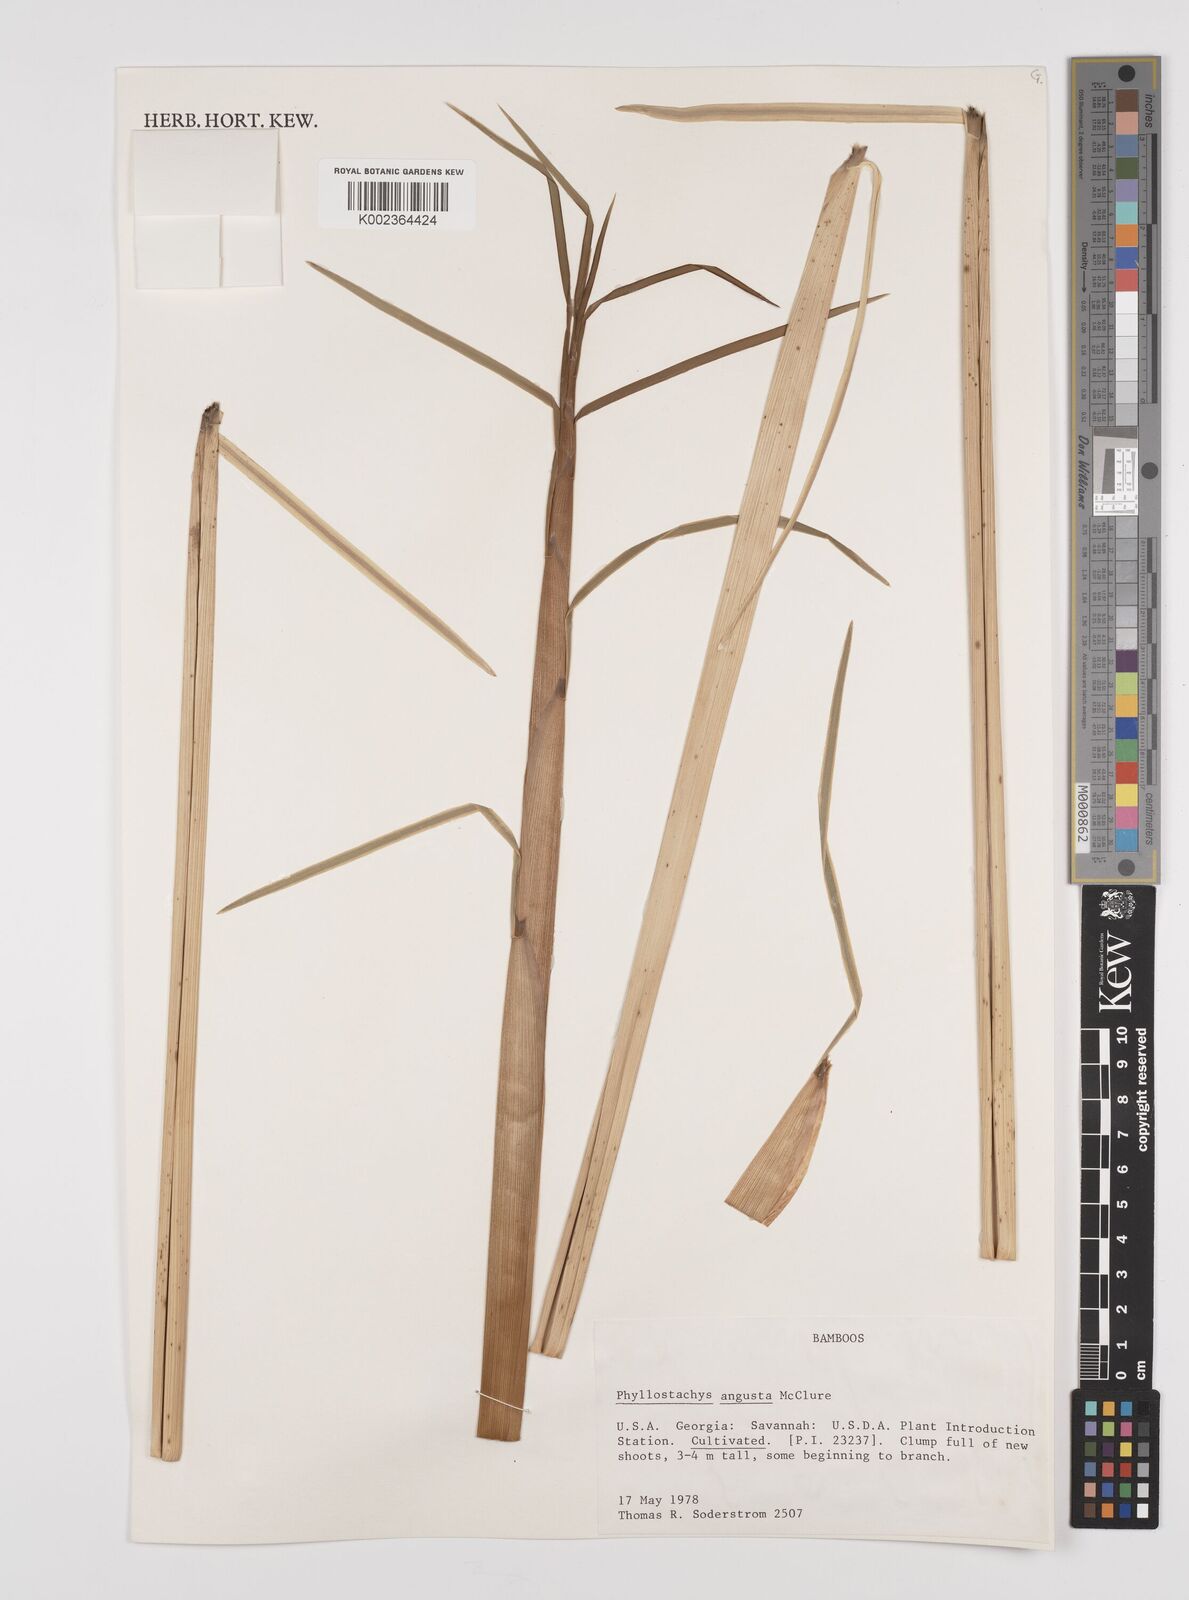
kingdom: Plantae
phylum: Tracheophyta
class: Liliopsida
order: Poales
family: Poaceae
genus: Phyllostachys
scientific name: Phyllostachys angusta
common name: Stone bamboo
